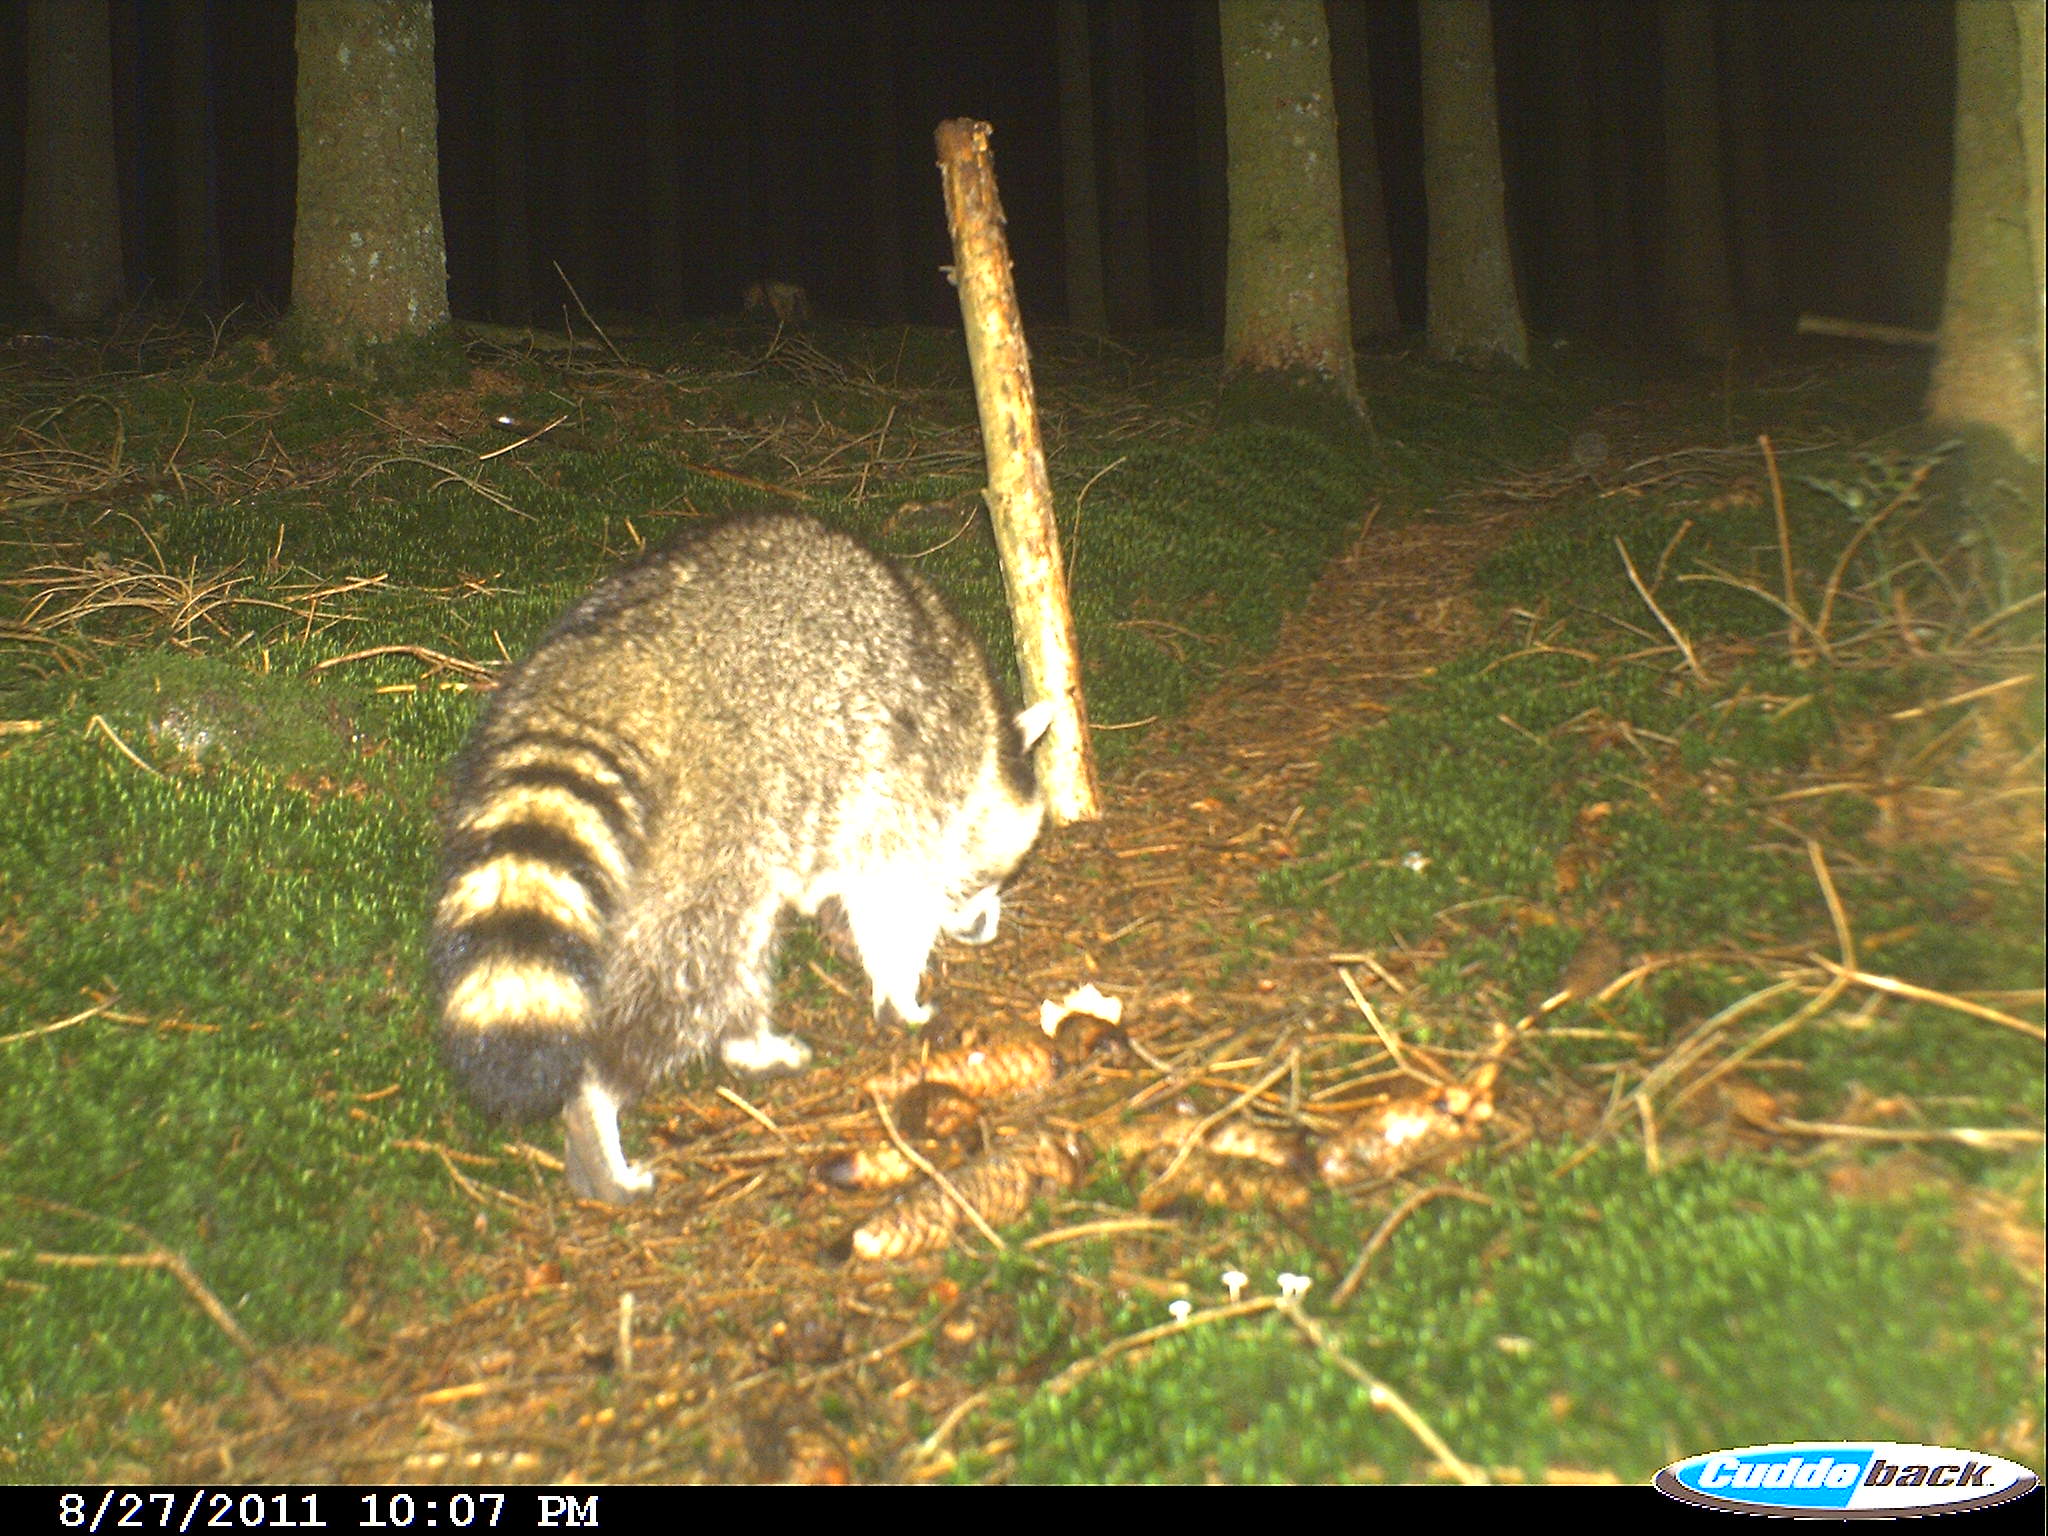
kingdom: Animalia
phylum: Chordata
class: Mammalia
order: Carnivora
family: Procyonidae
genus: Procyon
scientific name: Procyon lotor
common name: Raccoon
